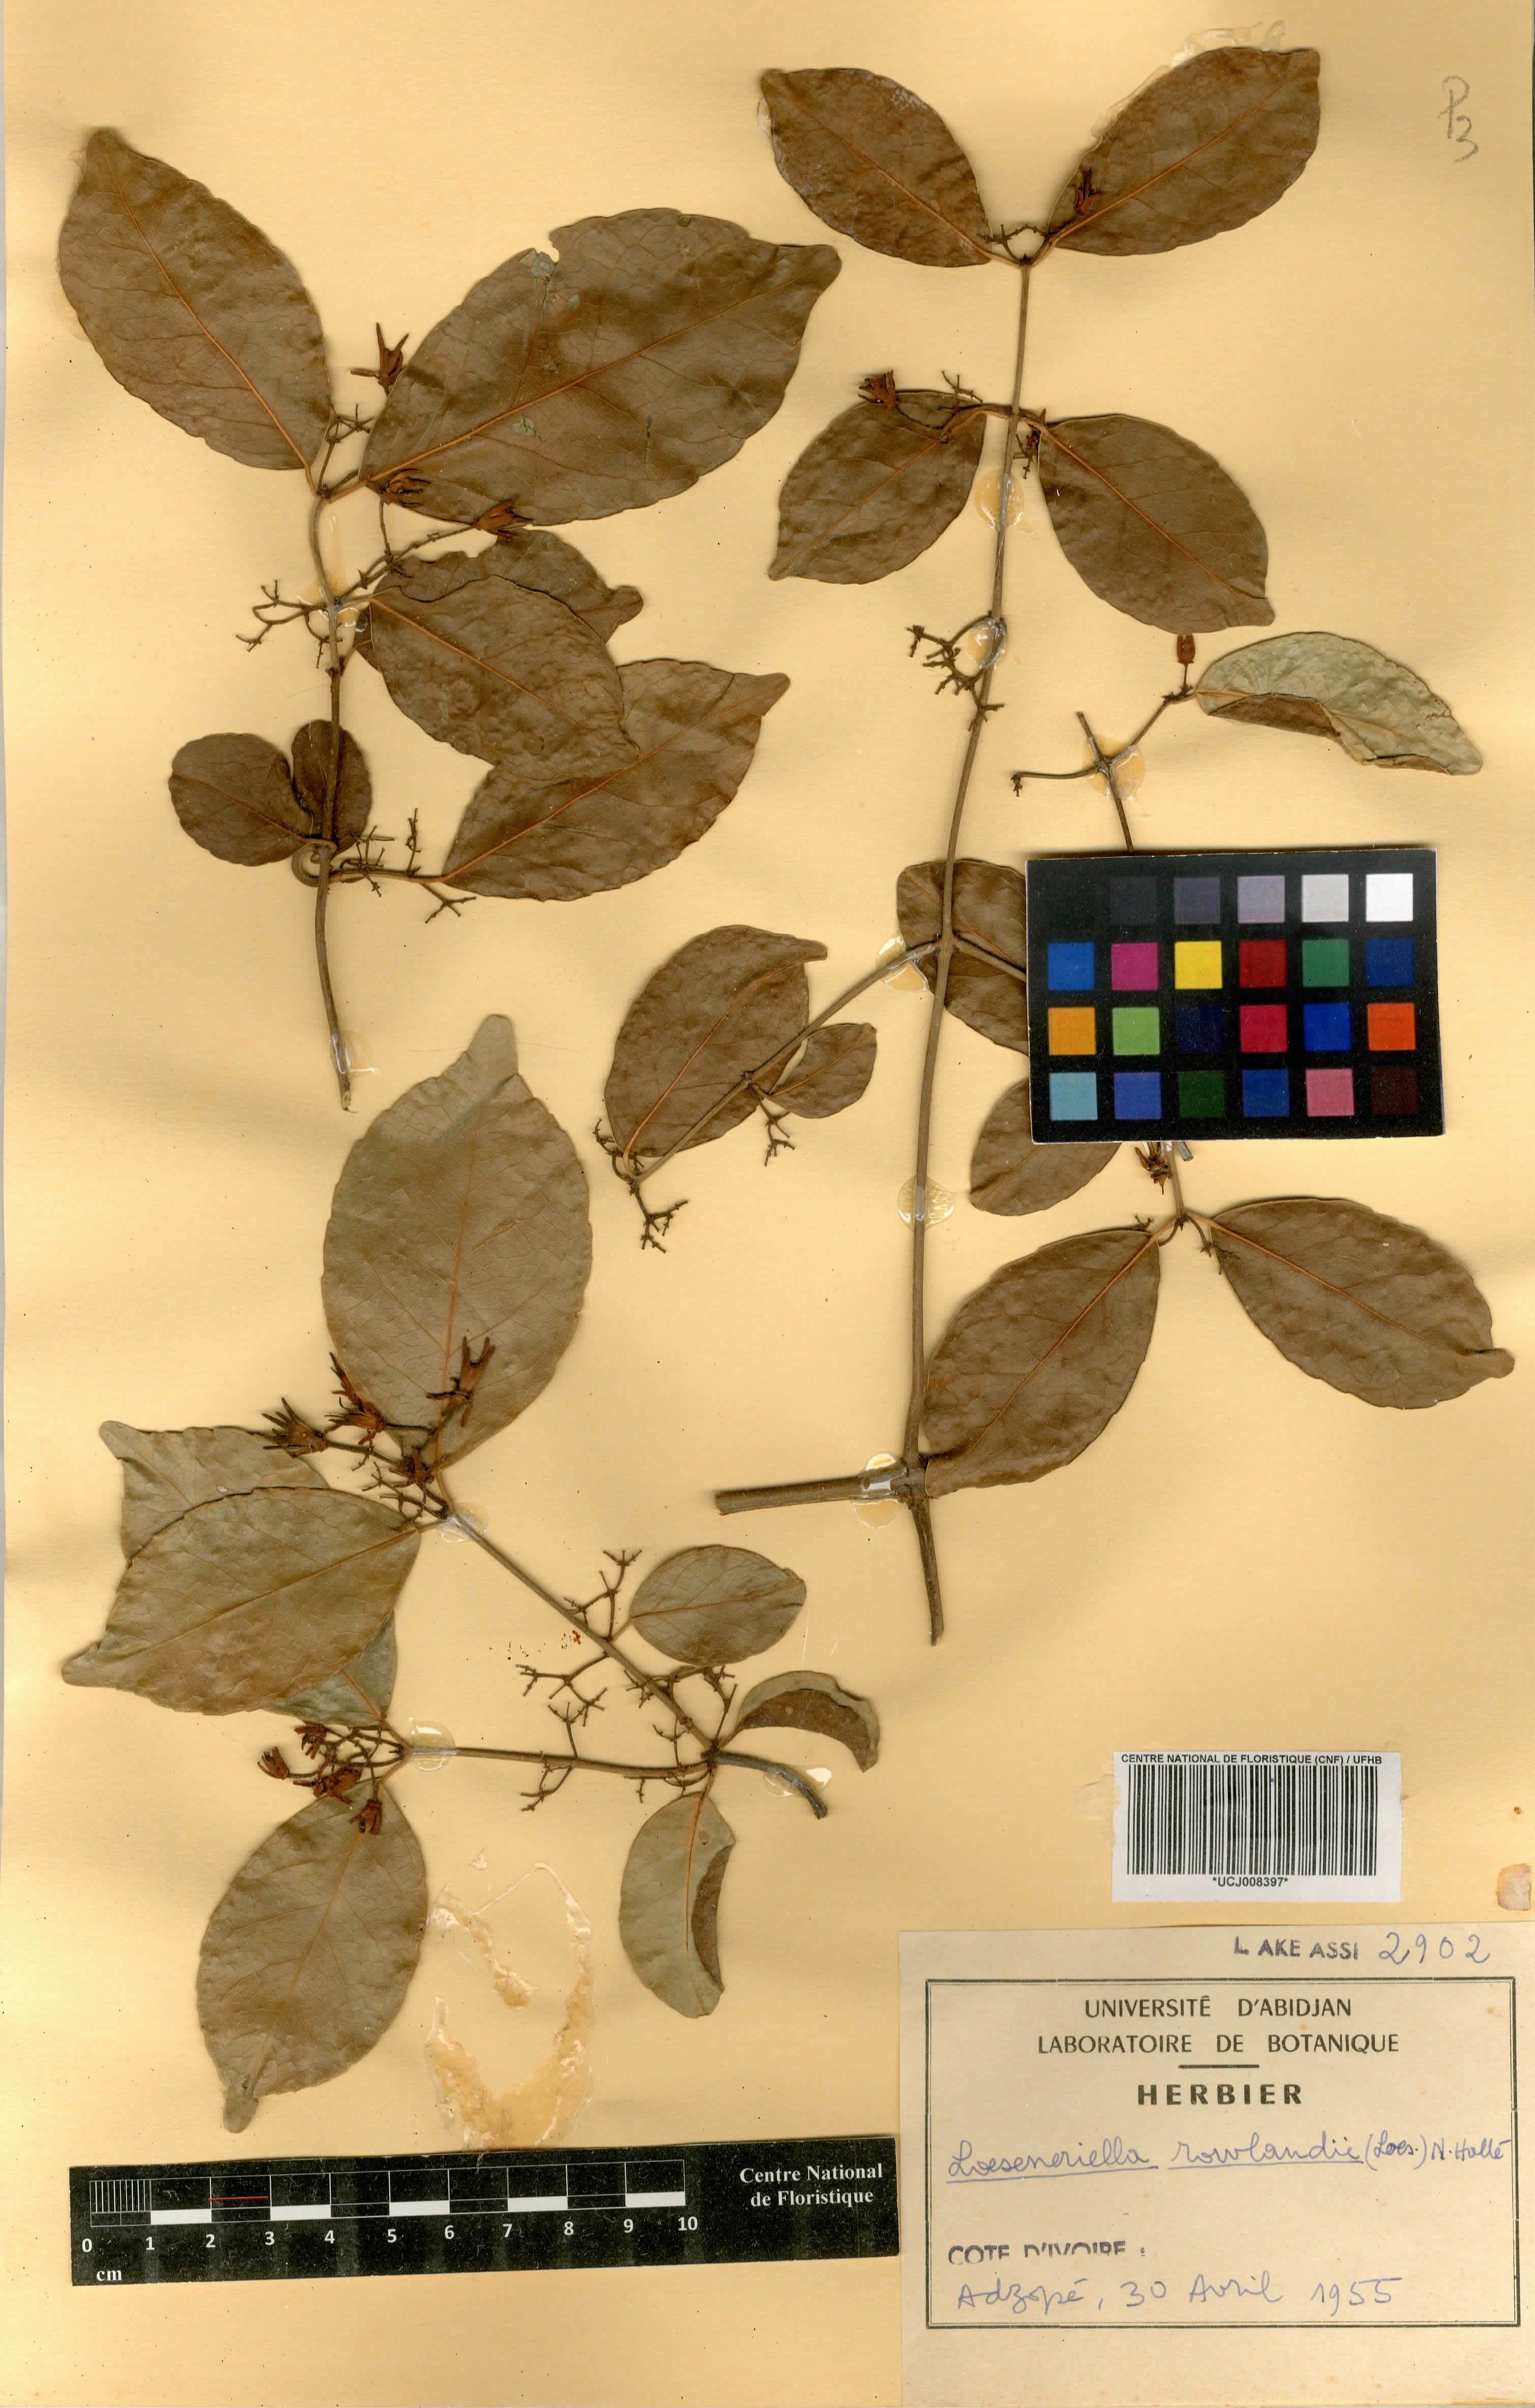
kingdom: Plantae
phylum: Tracheophyta
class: Magnoliopsida
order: Celastrales
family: Celastraceae
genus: Loeseneriella
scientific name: Loeseneriella rowlandii
